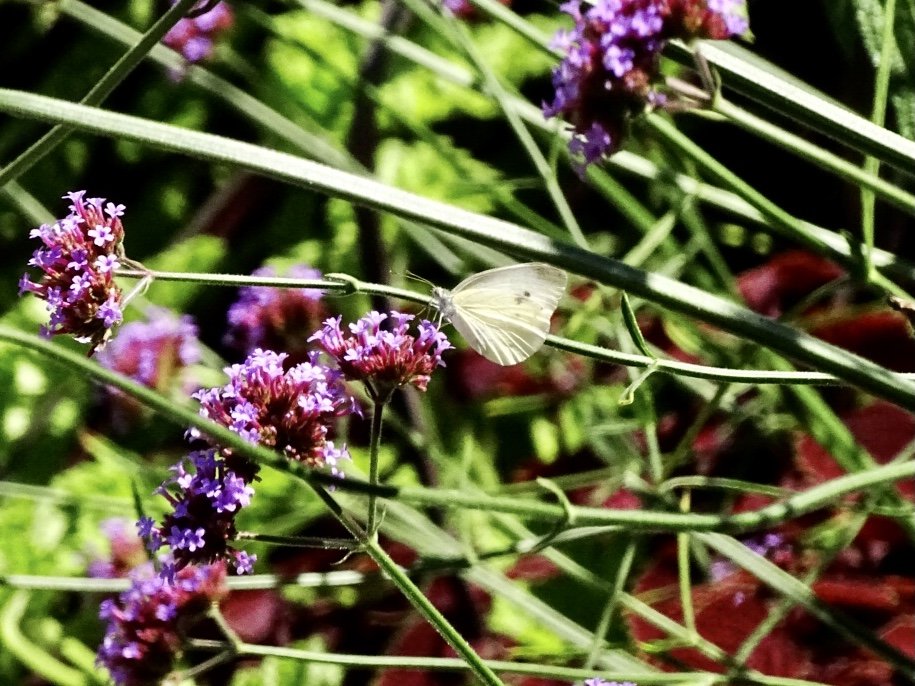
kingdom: Animalia
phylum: Arthropoda
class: Insecta
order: Lepidoptera
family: Pieridae
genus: Pieris
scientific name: Pieris rapae
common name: Cabbage White
